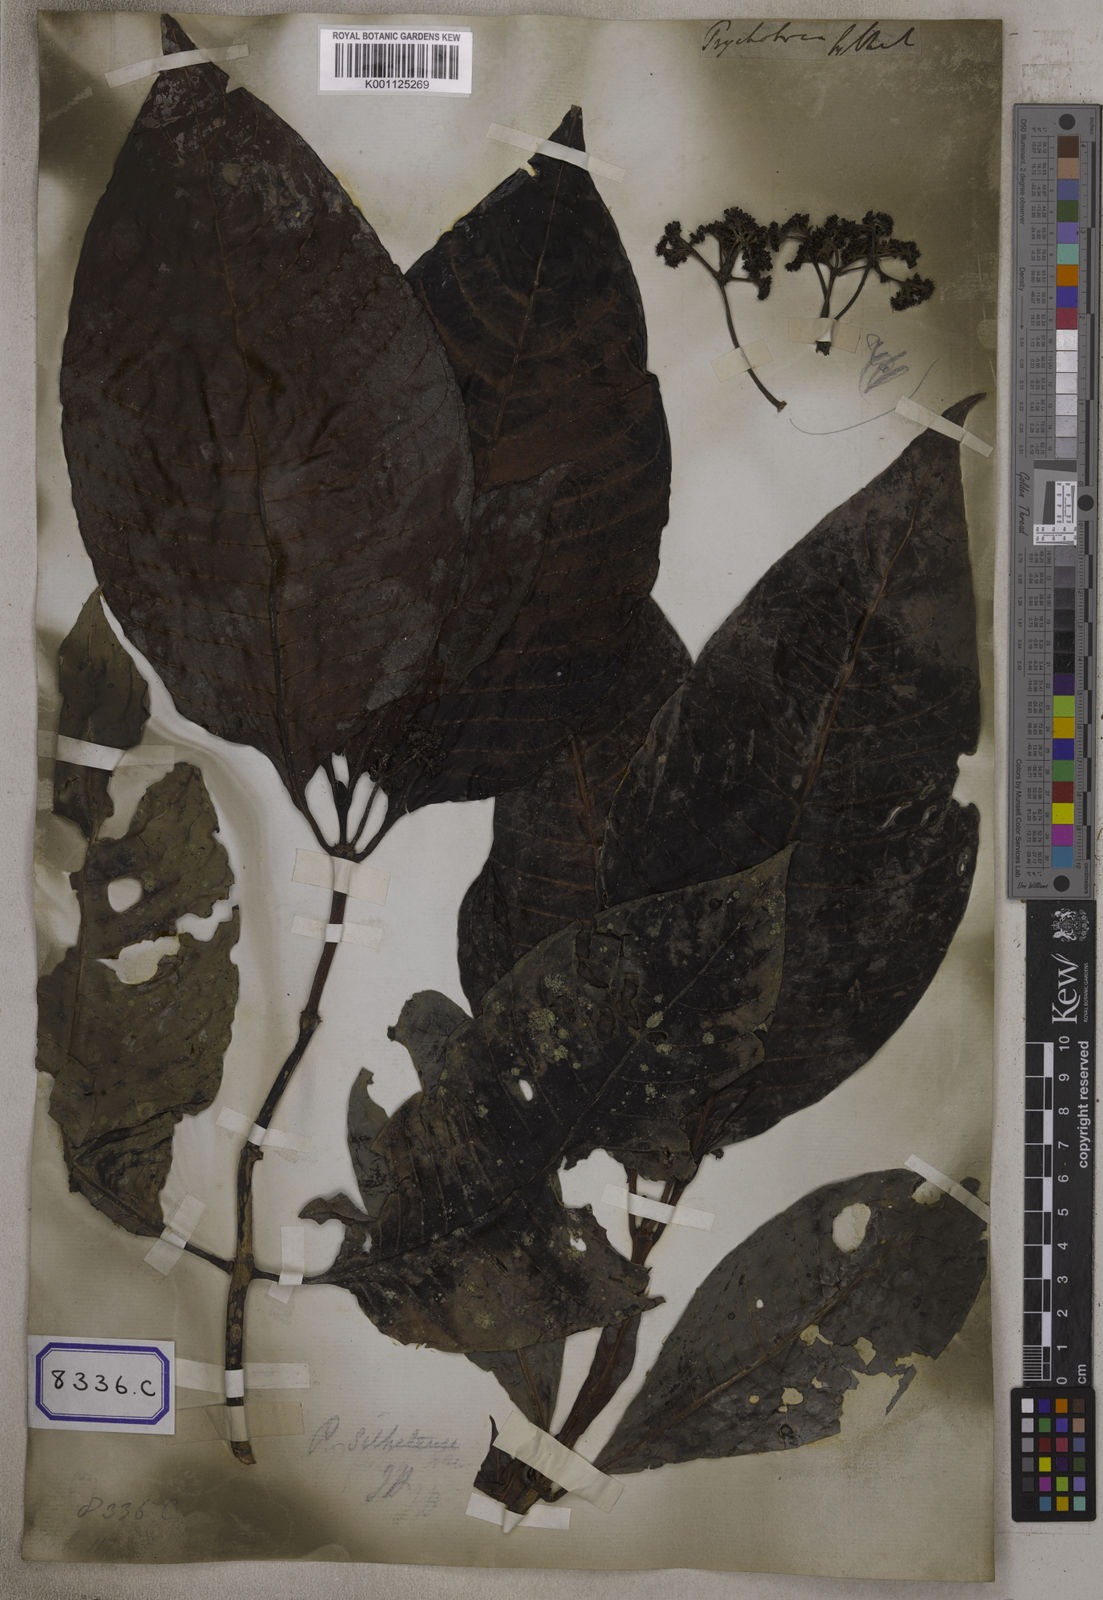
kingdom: Plantae
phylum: Tracheophyta
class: Magnoliopsida
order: Gentianales
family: Rubiaceae
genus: Psychotria
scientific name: Psychotria
